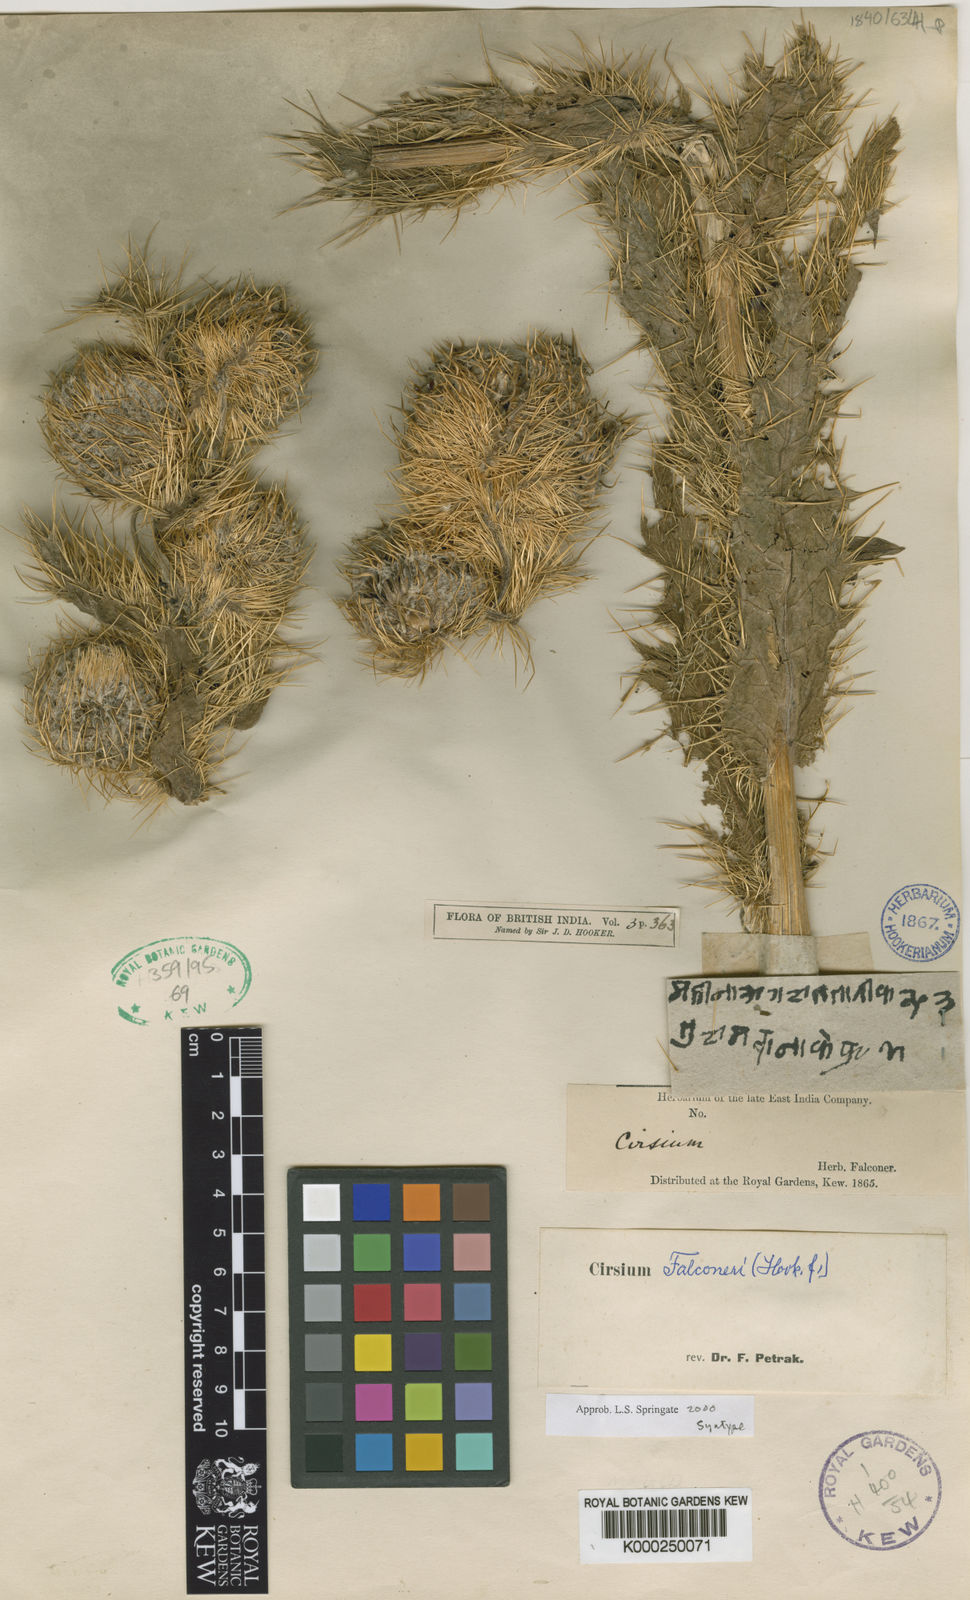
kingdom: Plantae
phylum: Tracheophyta
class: Magnoliopsida
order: Asterales
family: Asteraceae
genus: Cirsium
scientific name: Cirsium falconeri
